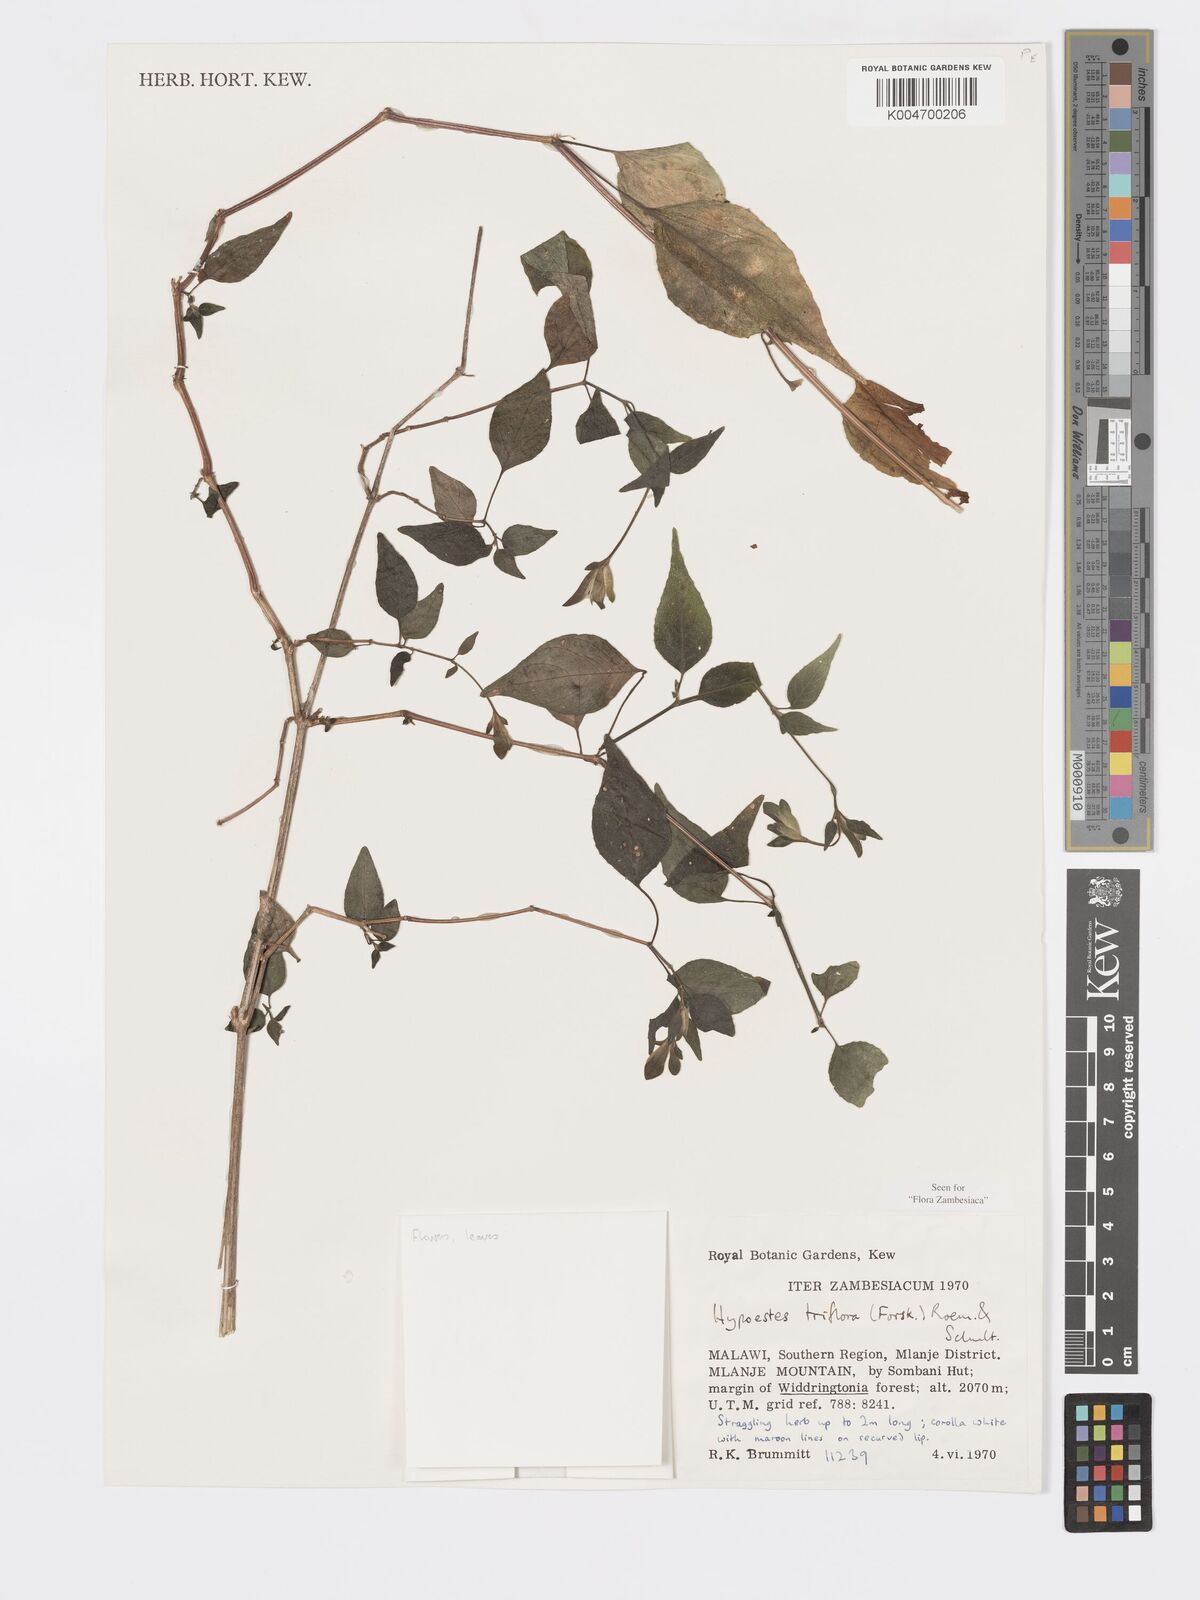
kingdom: Plantae
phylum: Tracheophyta
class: Magnoliopsida
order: Lamiales
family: Acanthaceae
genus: Hypoestes
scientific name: Hypoestes triflora
